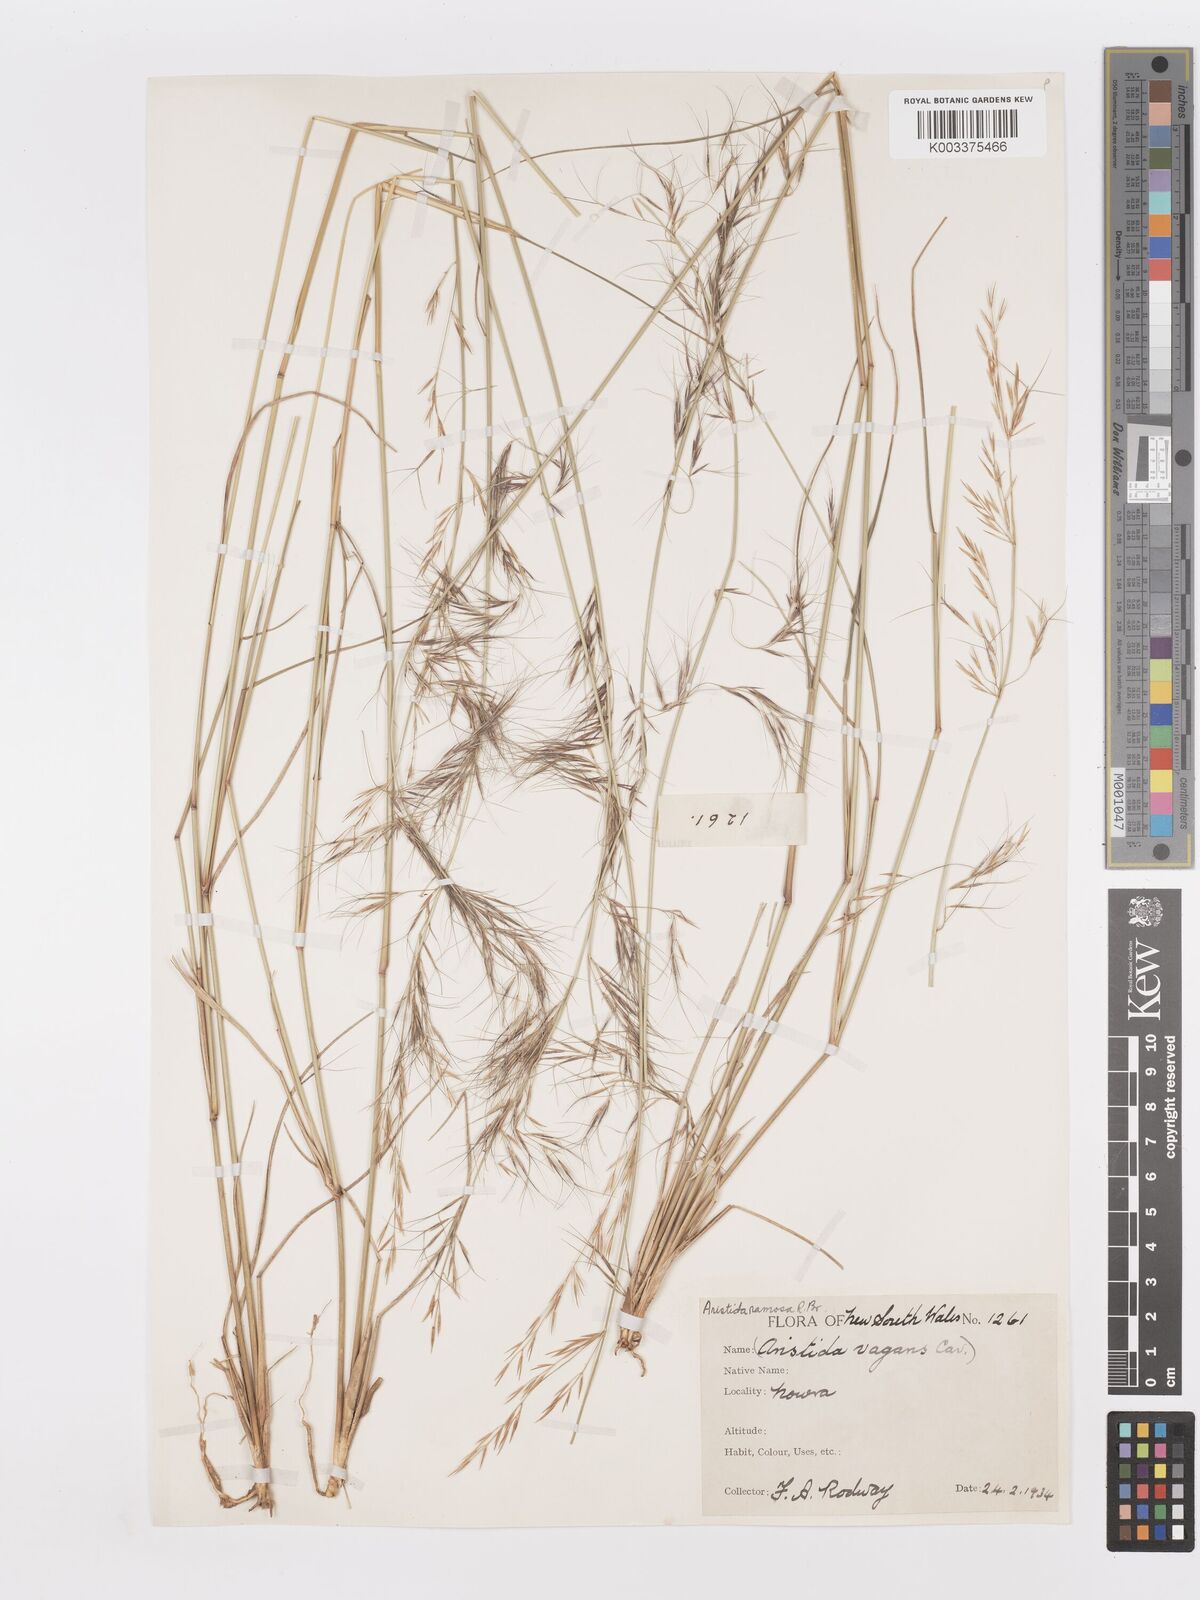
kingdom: Plantae
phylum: Tracheophyta
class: Liliopsida
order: Poales
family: Poaceae
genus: Aristida
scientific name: Aristida ramosa
